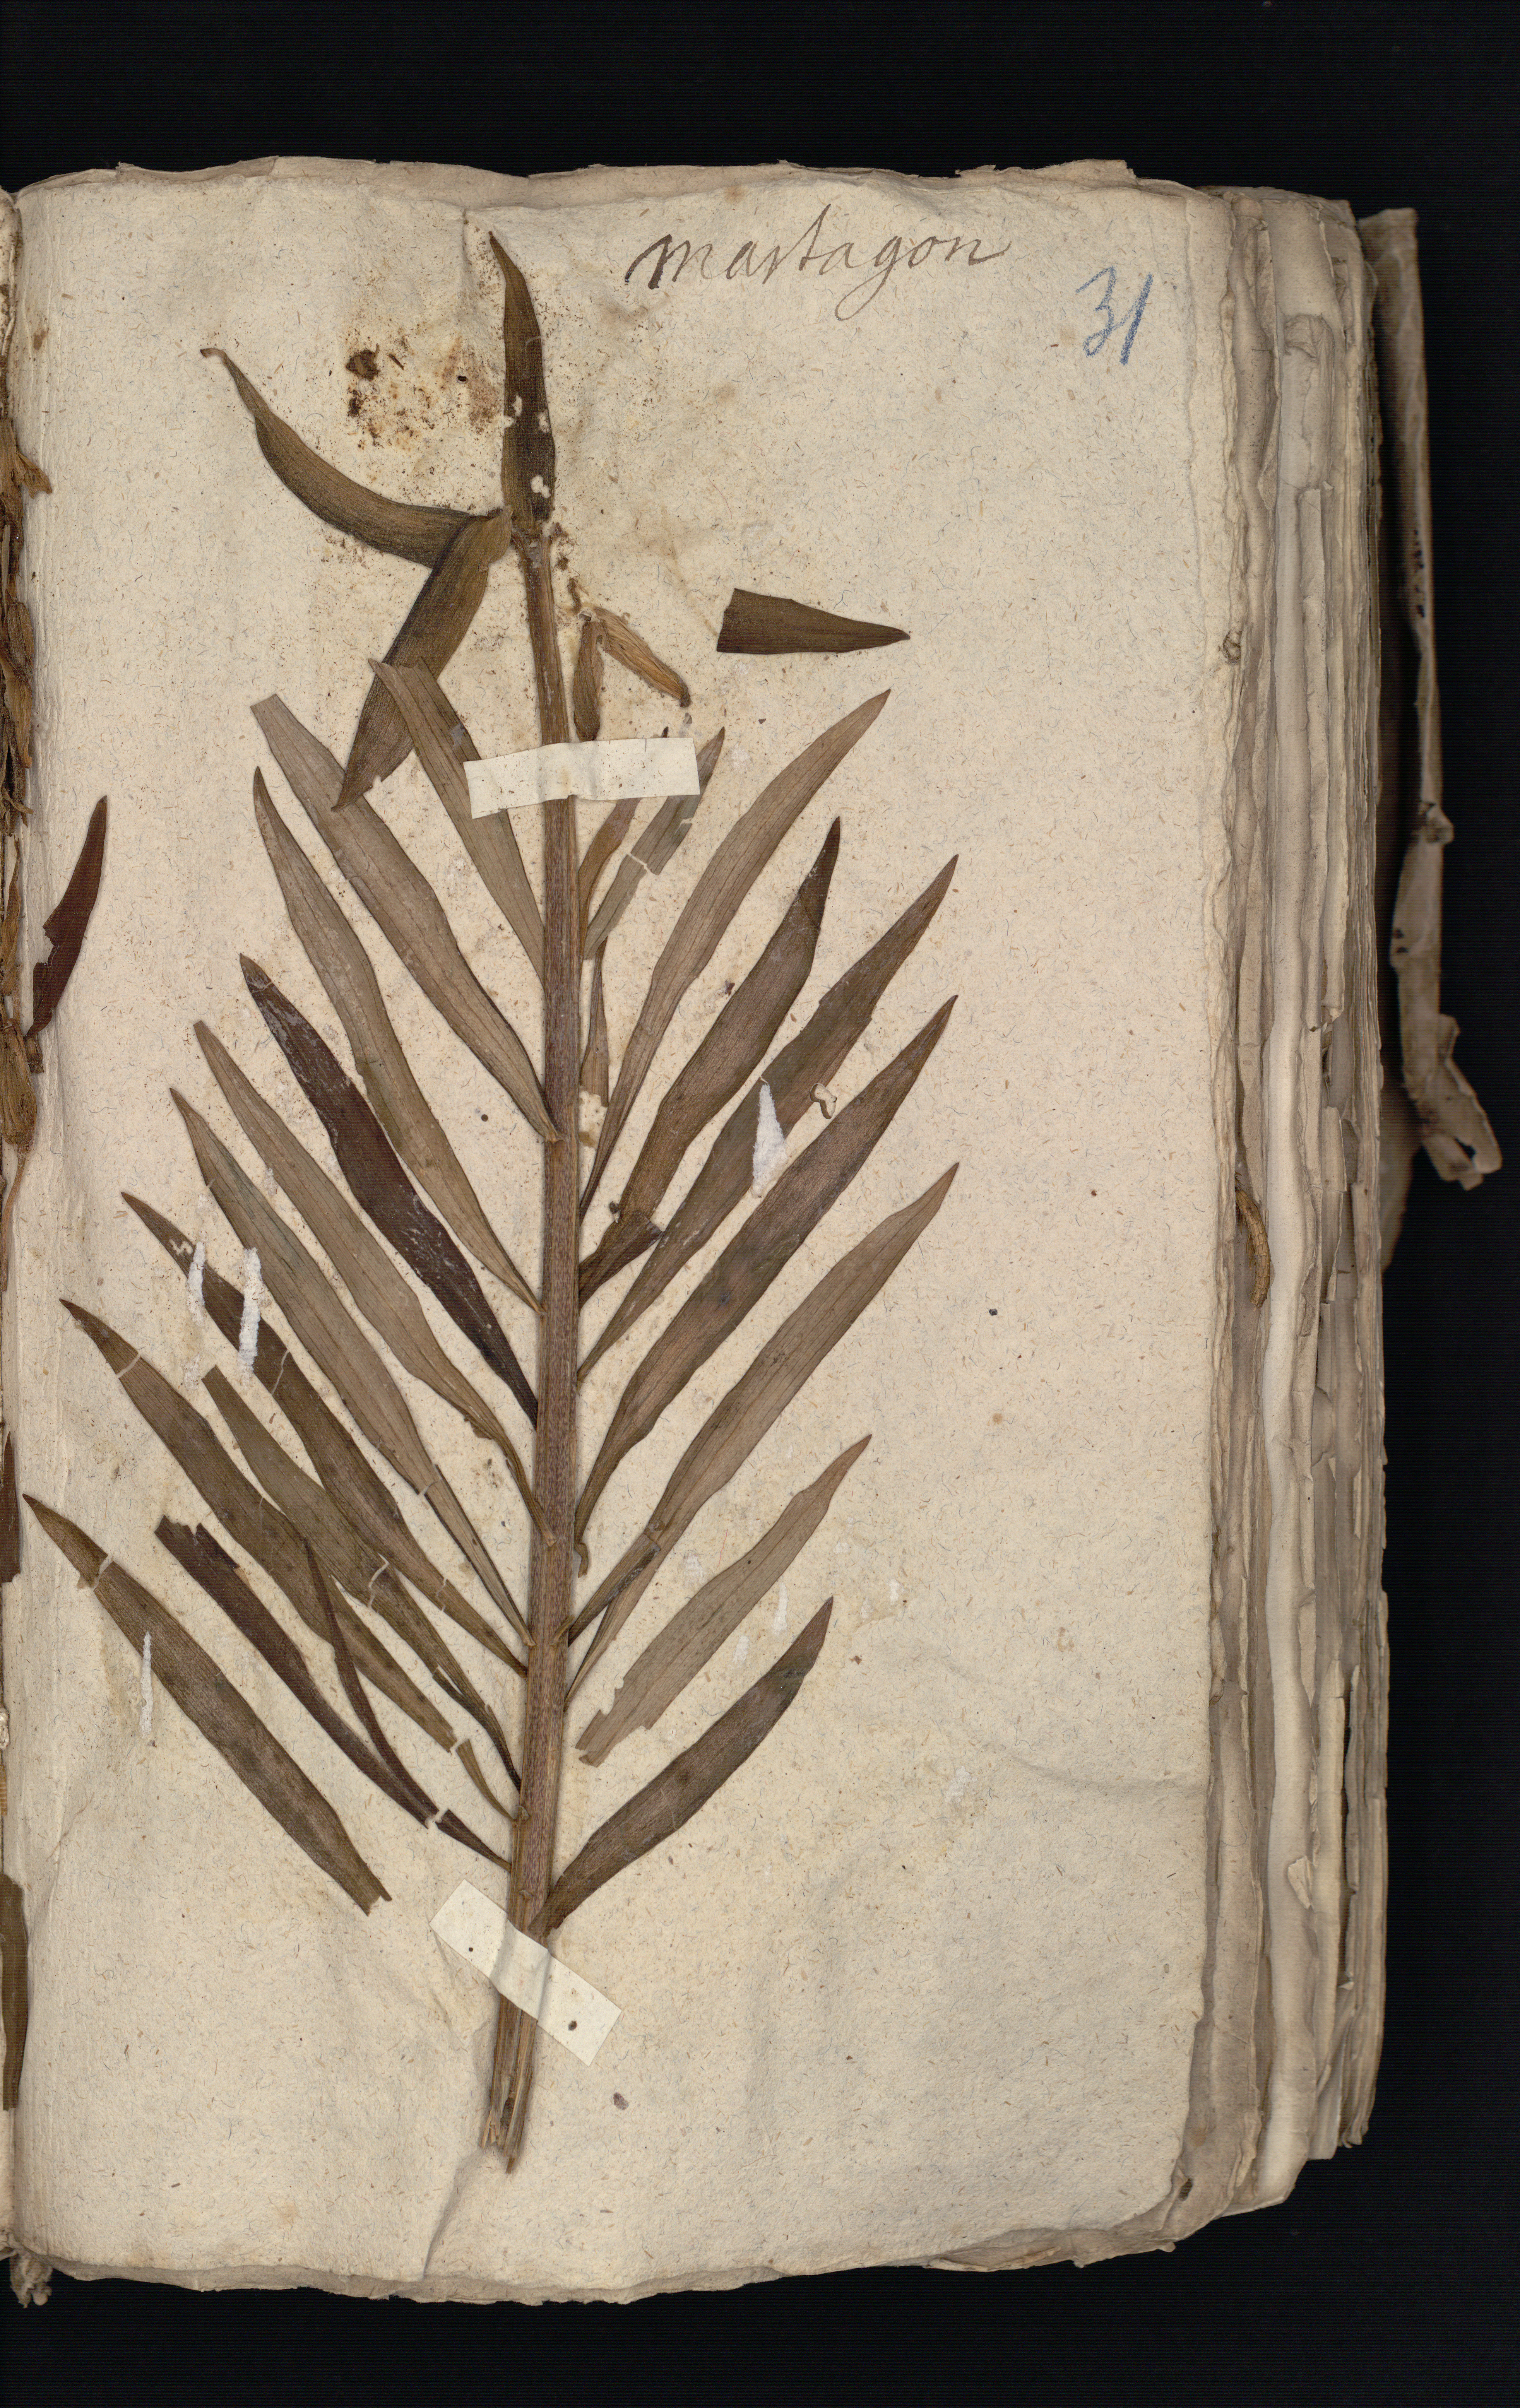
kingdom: Plantae
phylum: Tracheophyta
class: Liliopsida
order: Liliales
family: Liliaceae
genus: Lilium
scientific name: Lilium martagon
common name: Martagon lily
